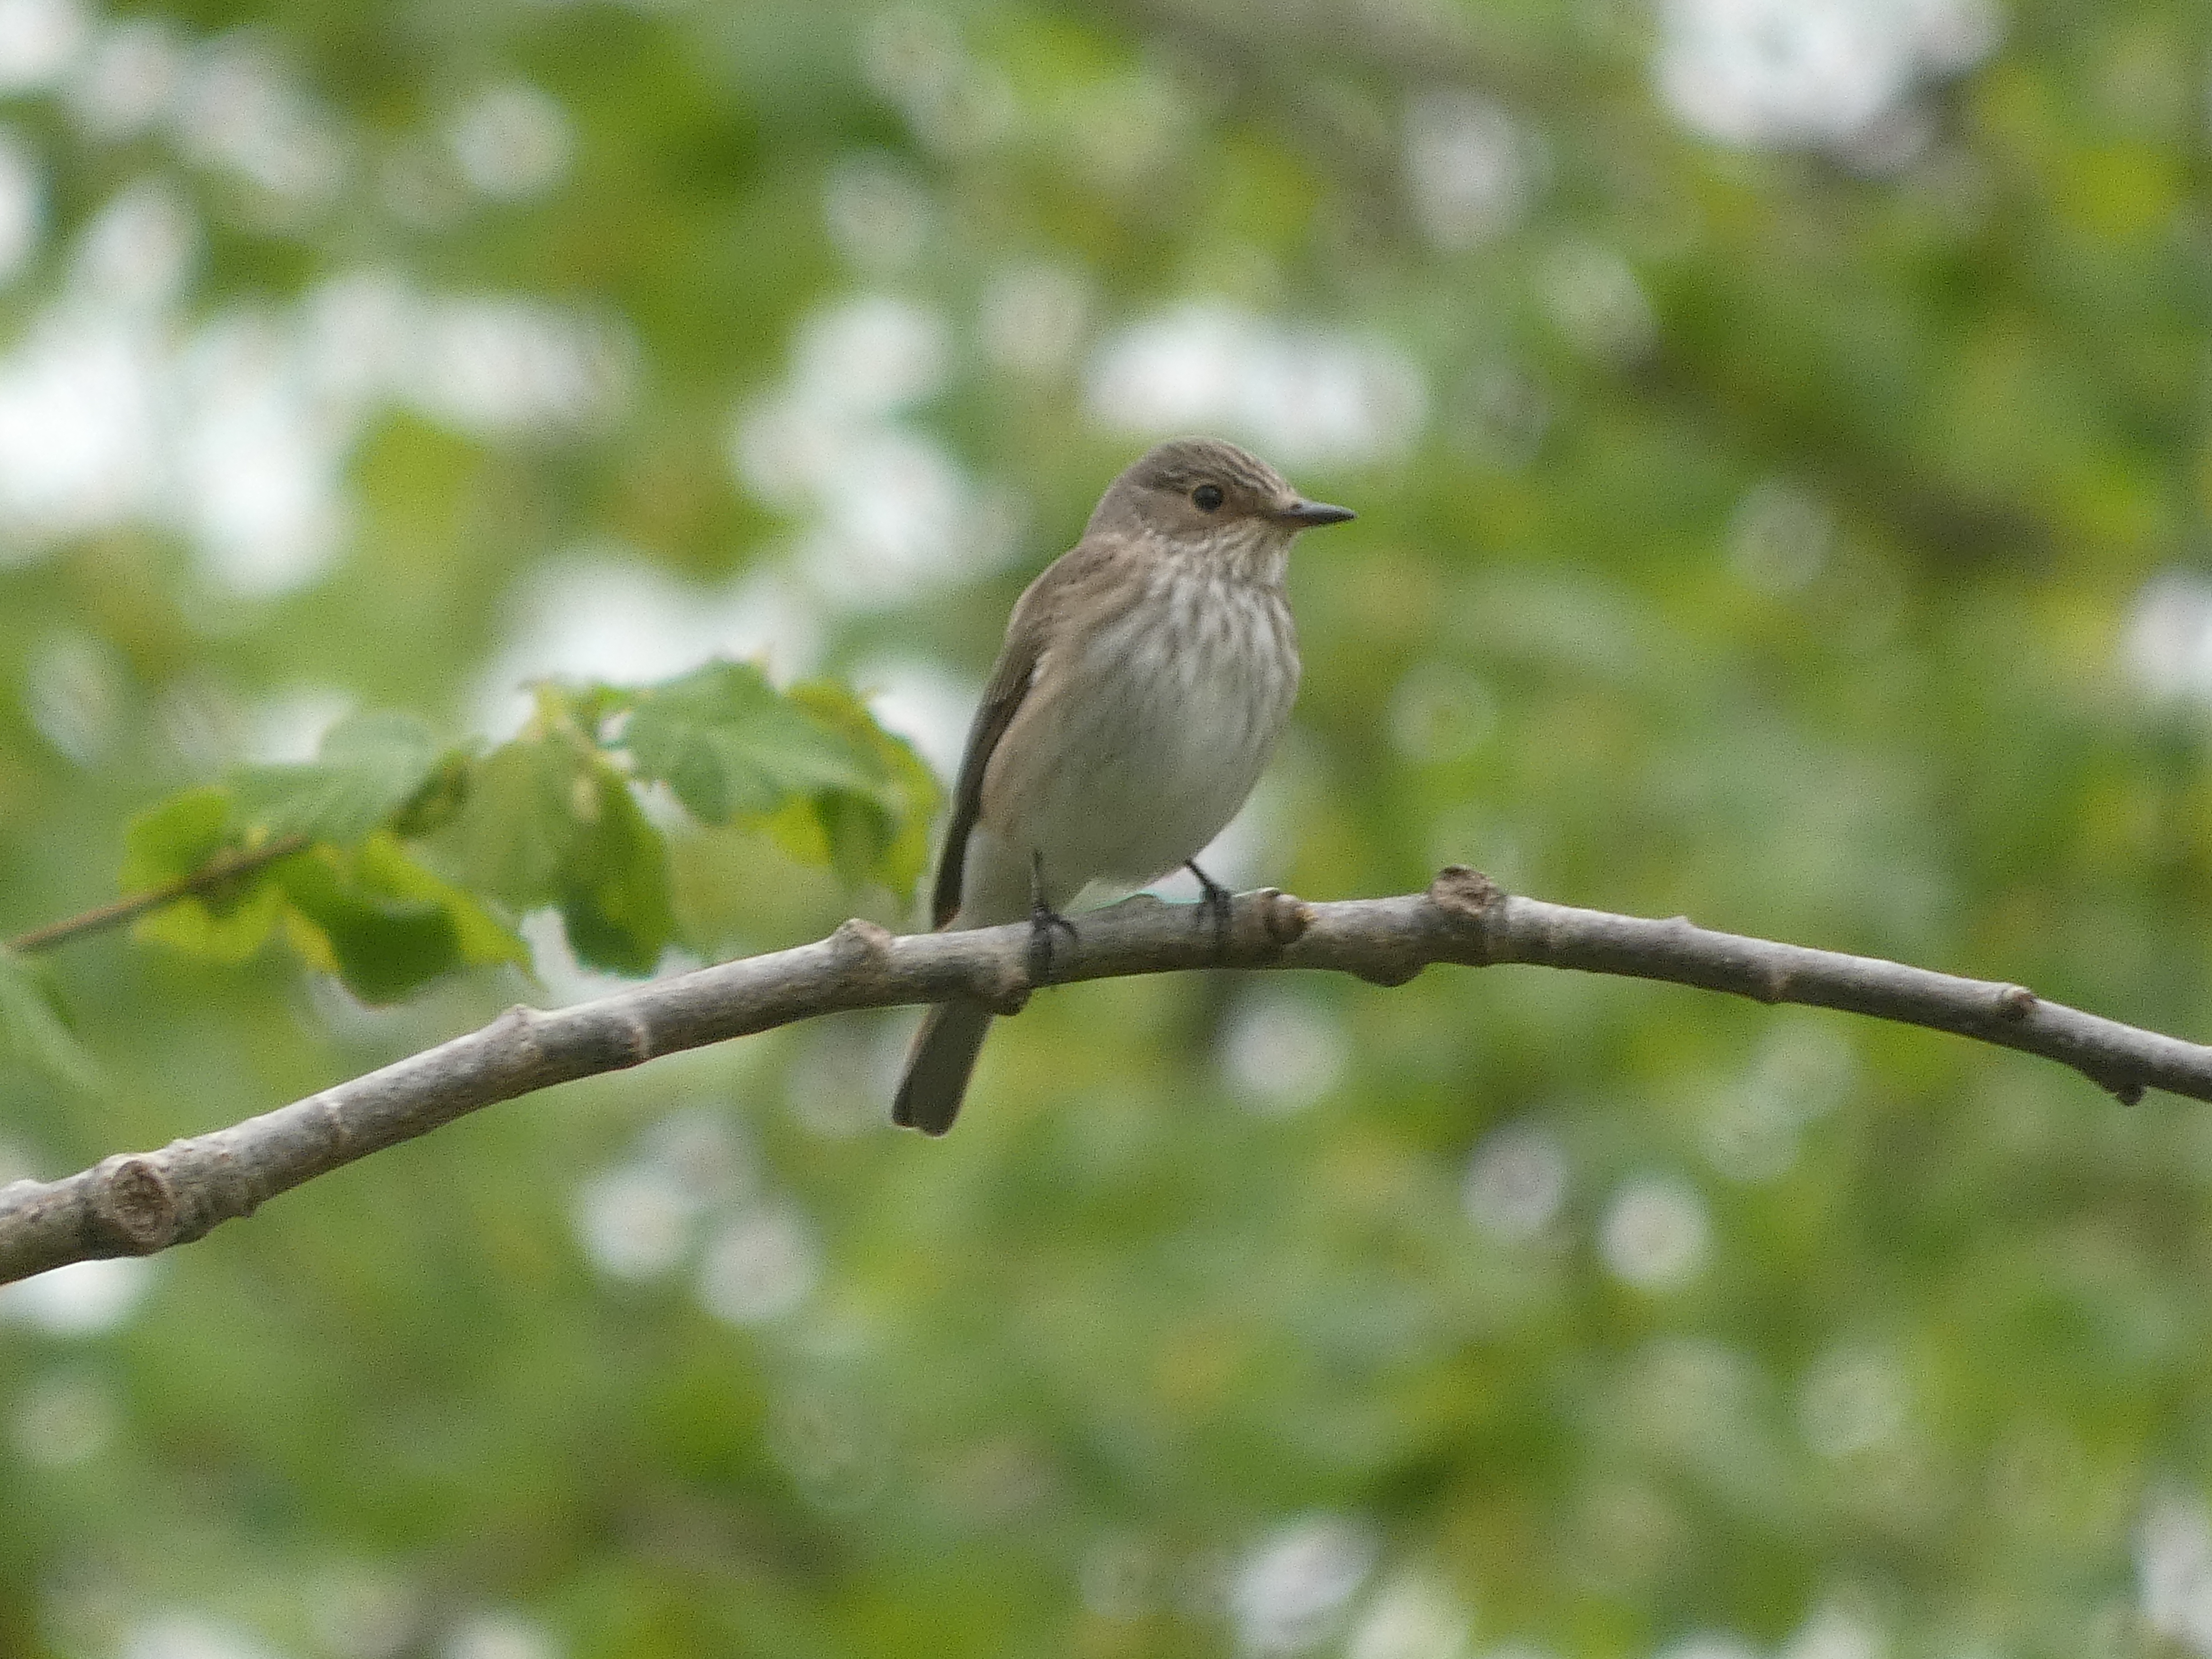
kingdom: Animalia
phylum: Chordata
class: Aves
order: Passeriformes
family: Muscicapidae
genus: Muscicapa
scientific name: Muscicapa striata
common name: Grå fluesnapper
